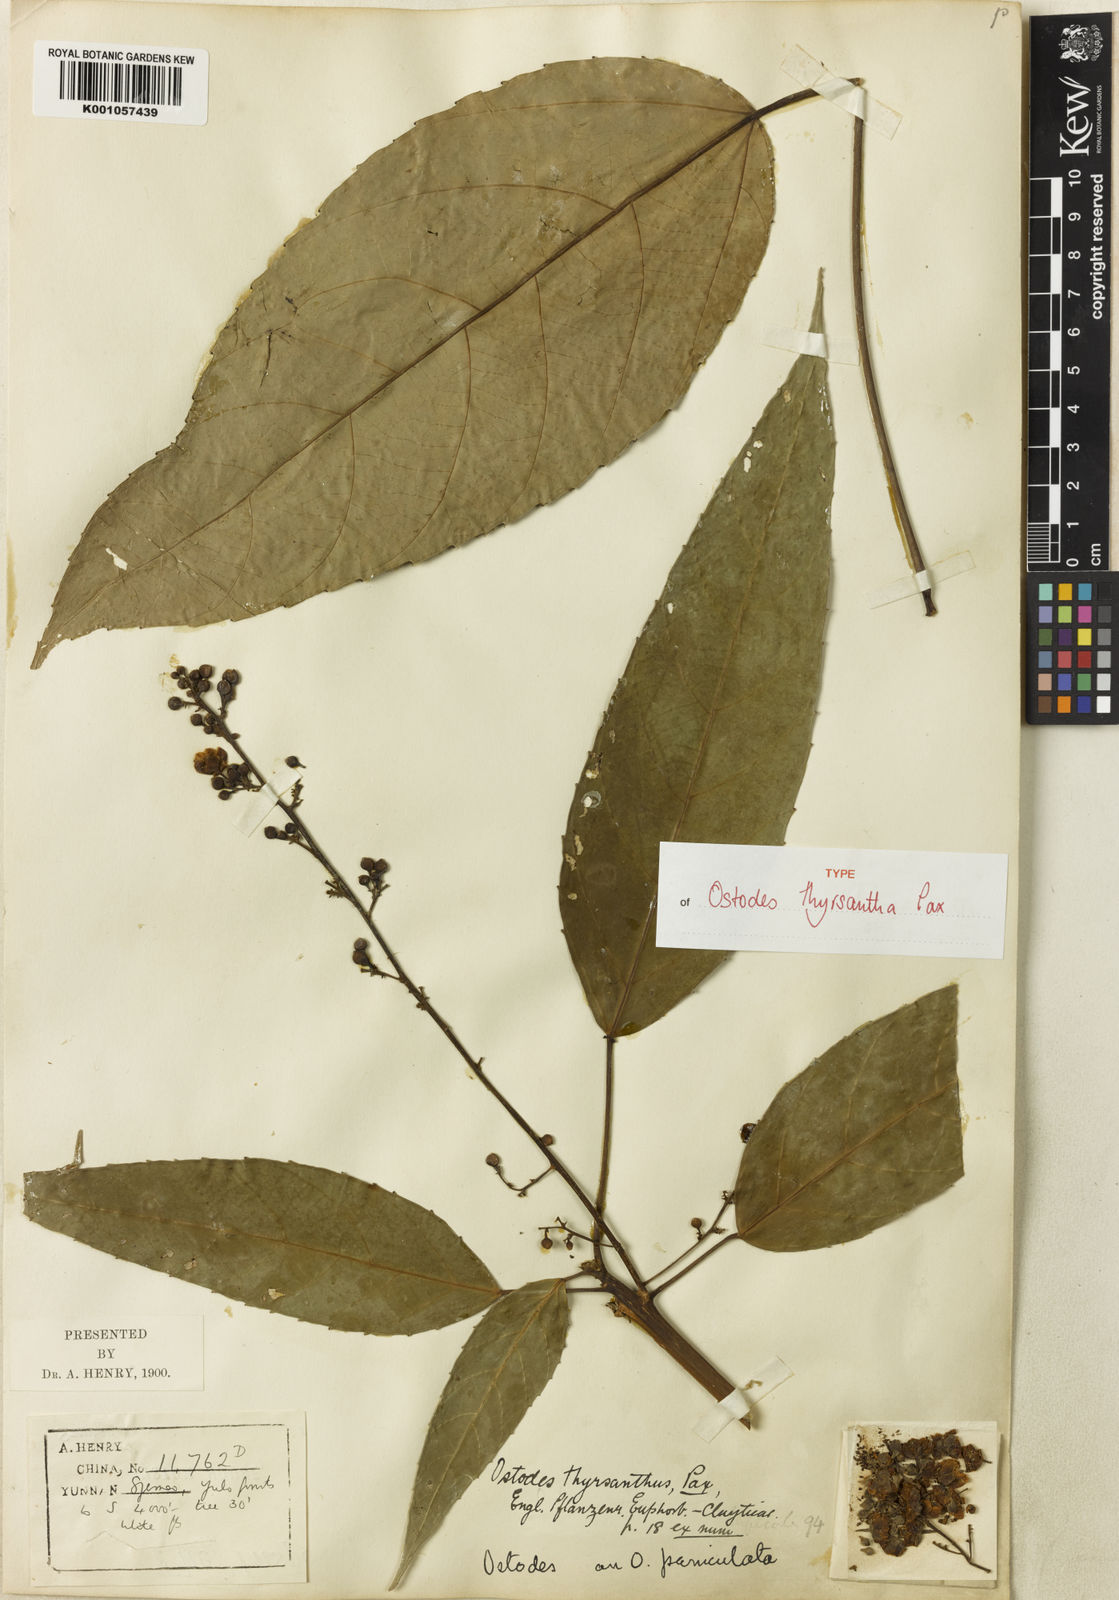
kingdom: Plantae
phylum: Tracheophyta
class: Magnoliopsida
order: Malpighiales
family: Euphorbiaceae
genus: Ostodes
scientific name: Ostodes paniculata
